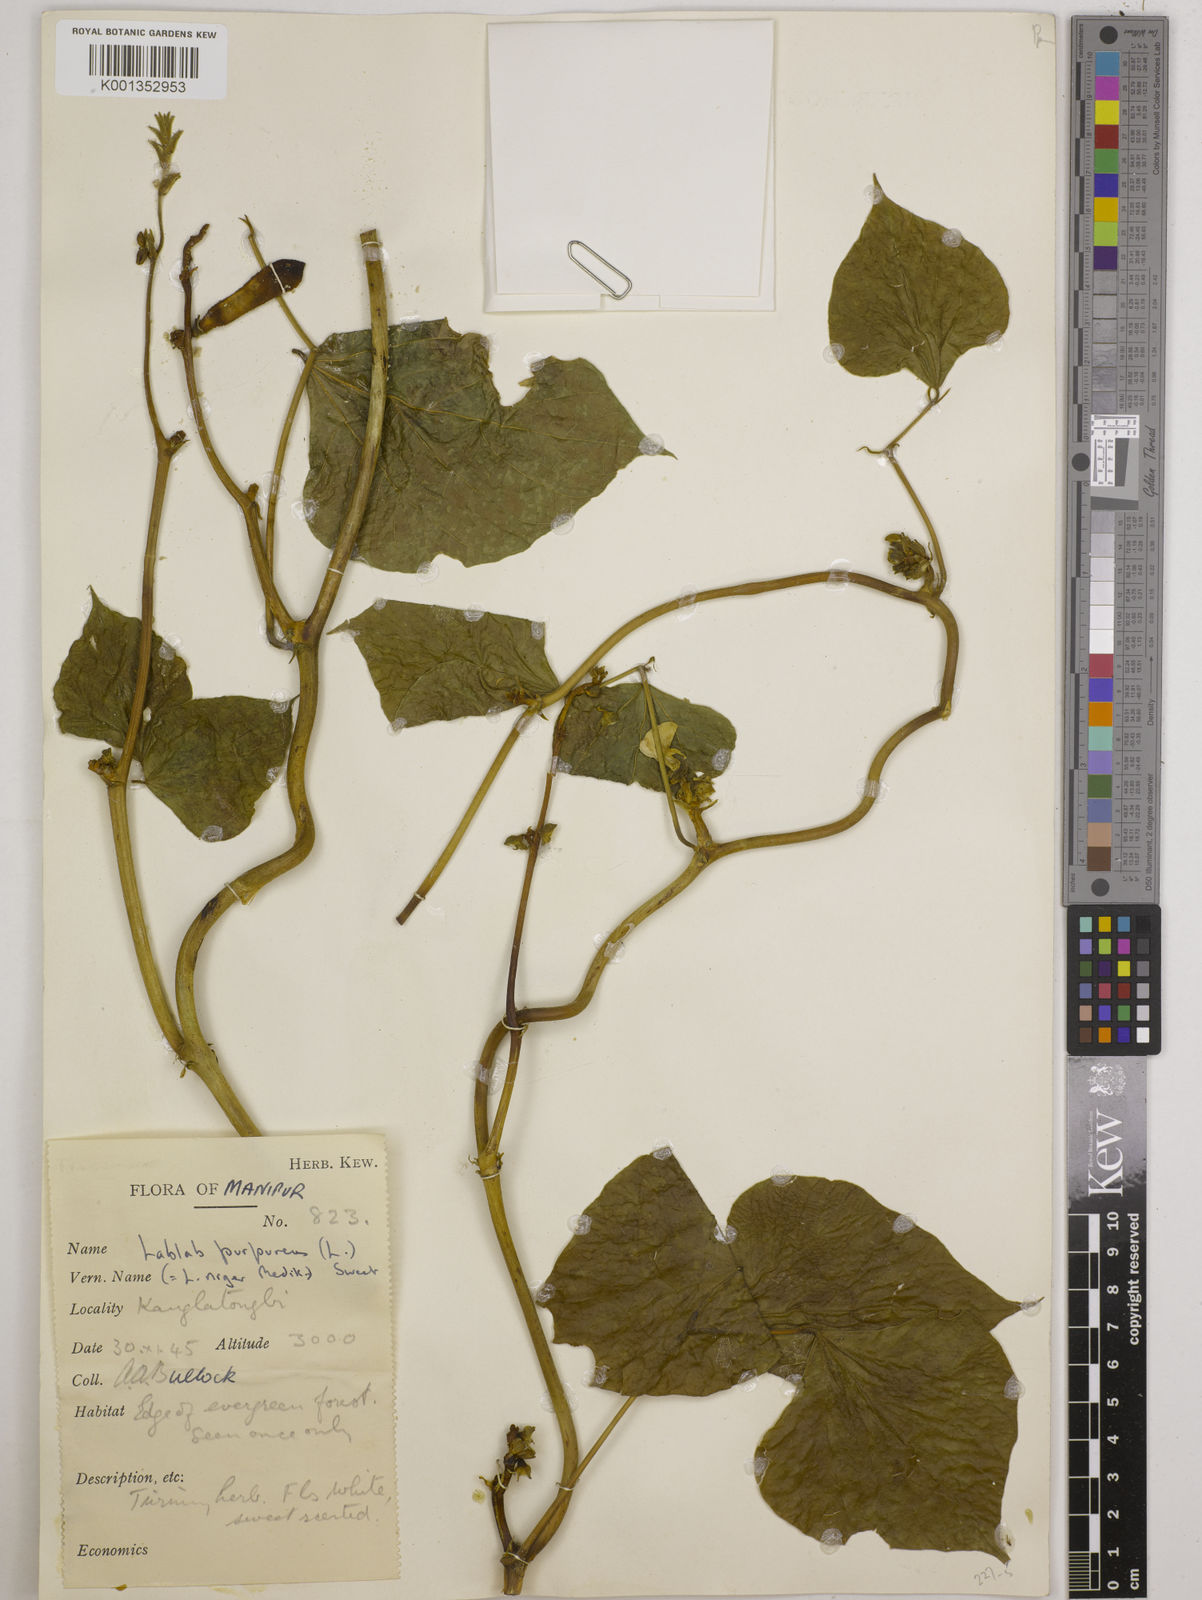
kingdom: Plantae
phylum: Tracheophyta
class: Magnoliopsida
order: Fabales
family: Fabaceae
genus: Lablab
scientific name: Lablab purpureus
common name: Lablab-bean
